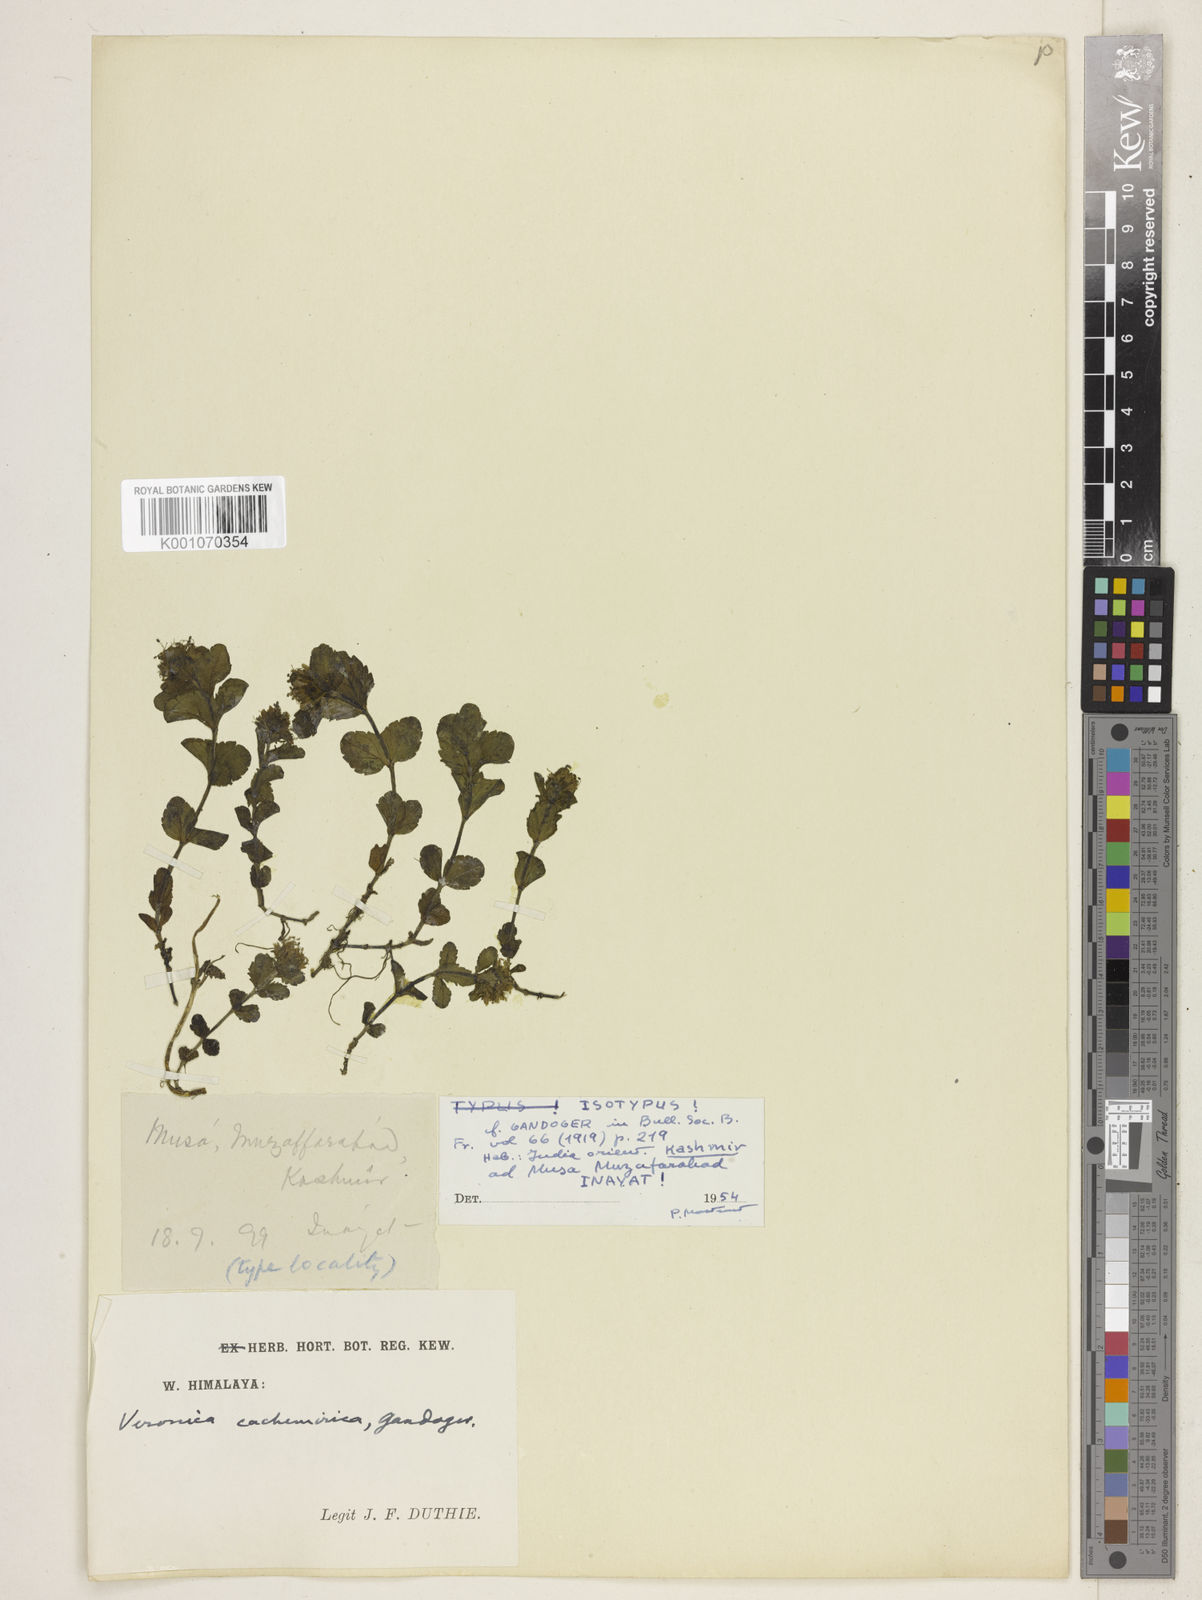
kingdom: Plantae
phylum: Tracheophyta
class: Magnoliopsida
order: Lamiales
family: Plantaginaceae
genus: Veronica
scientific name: Veronica cachemirica
